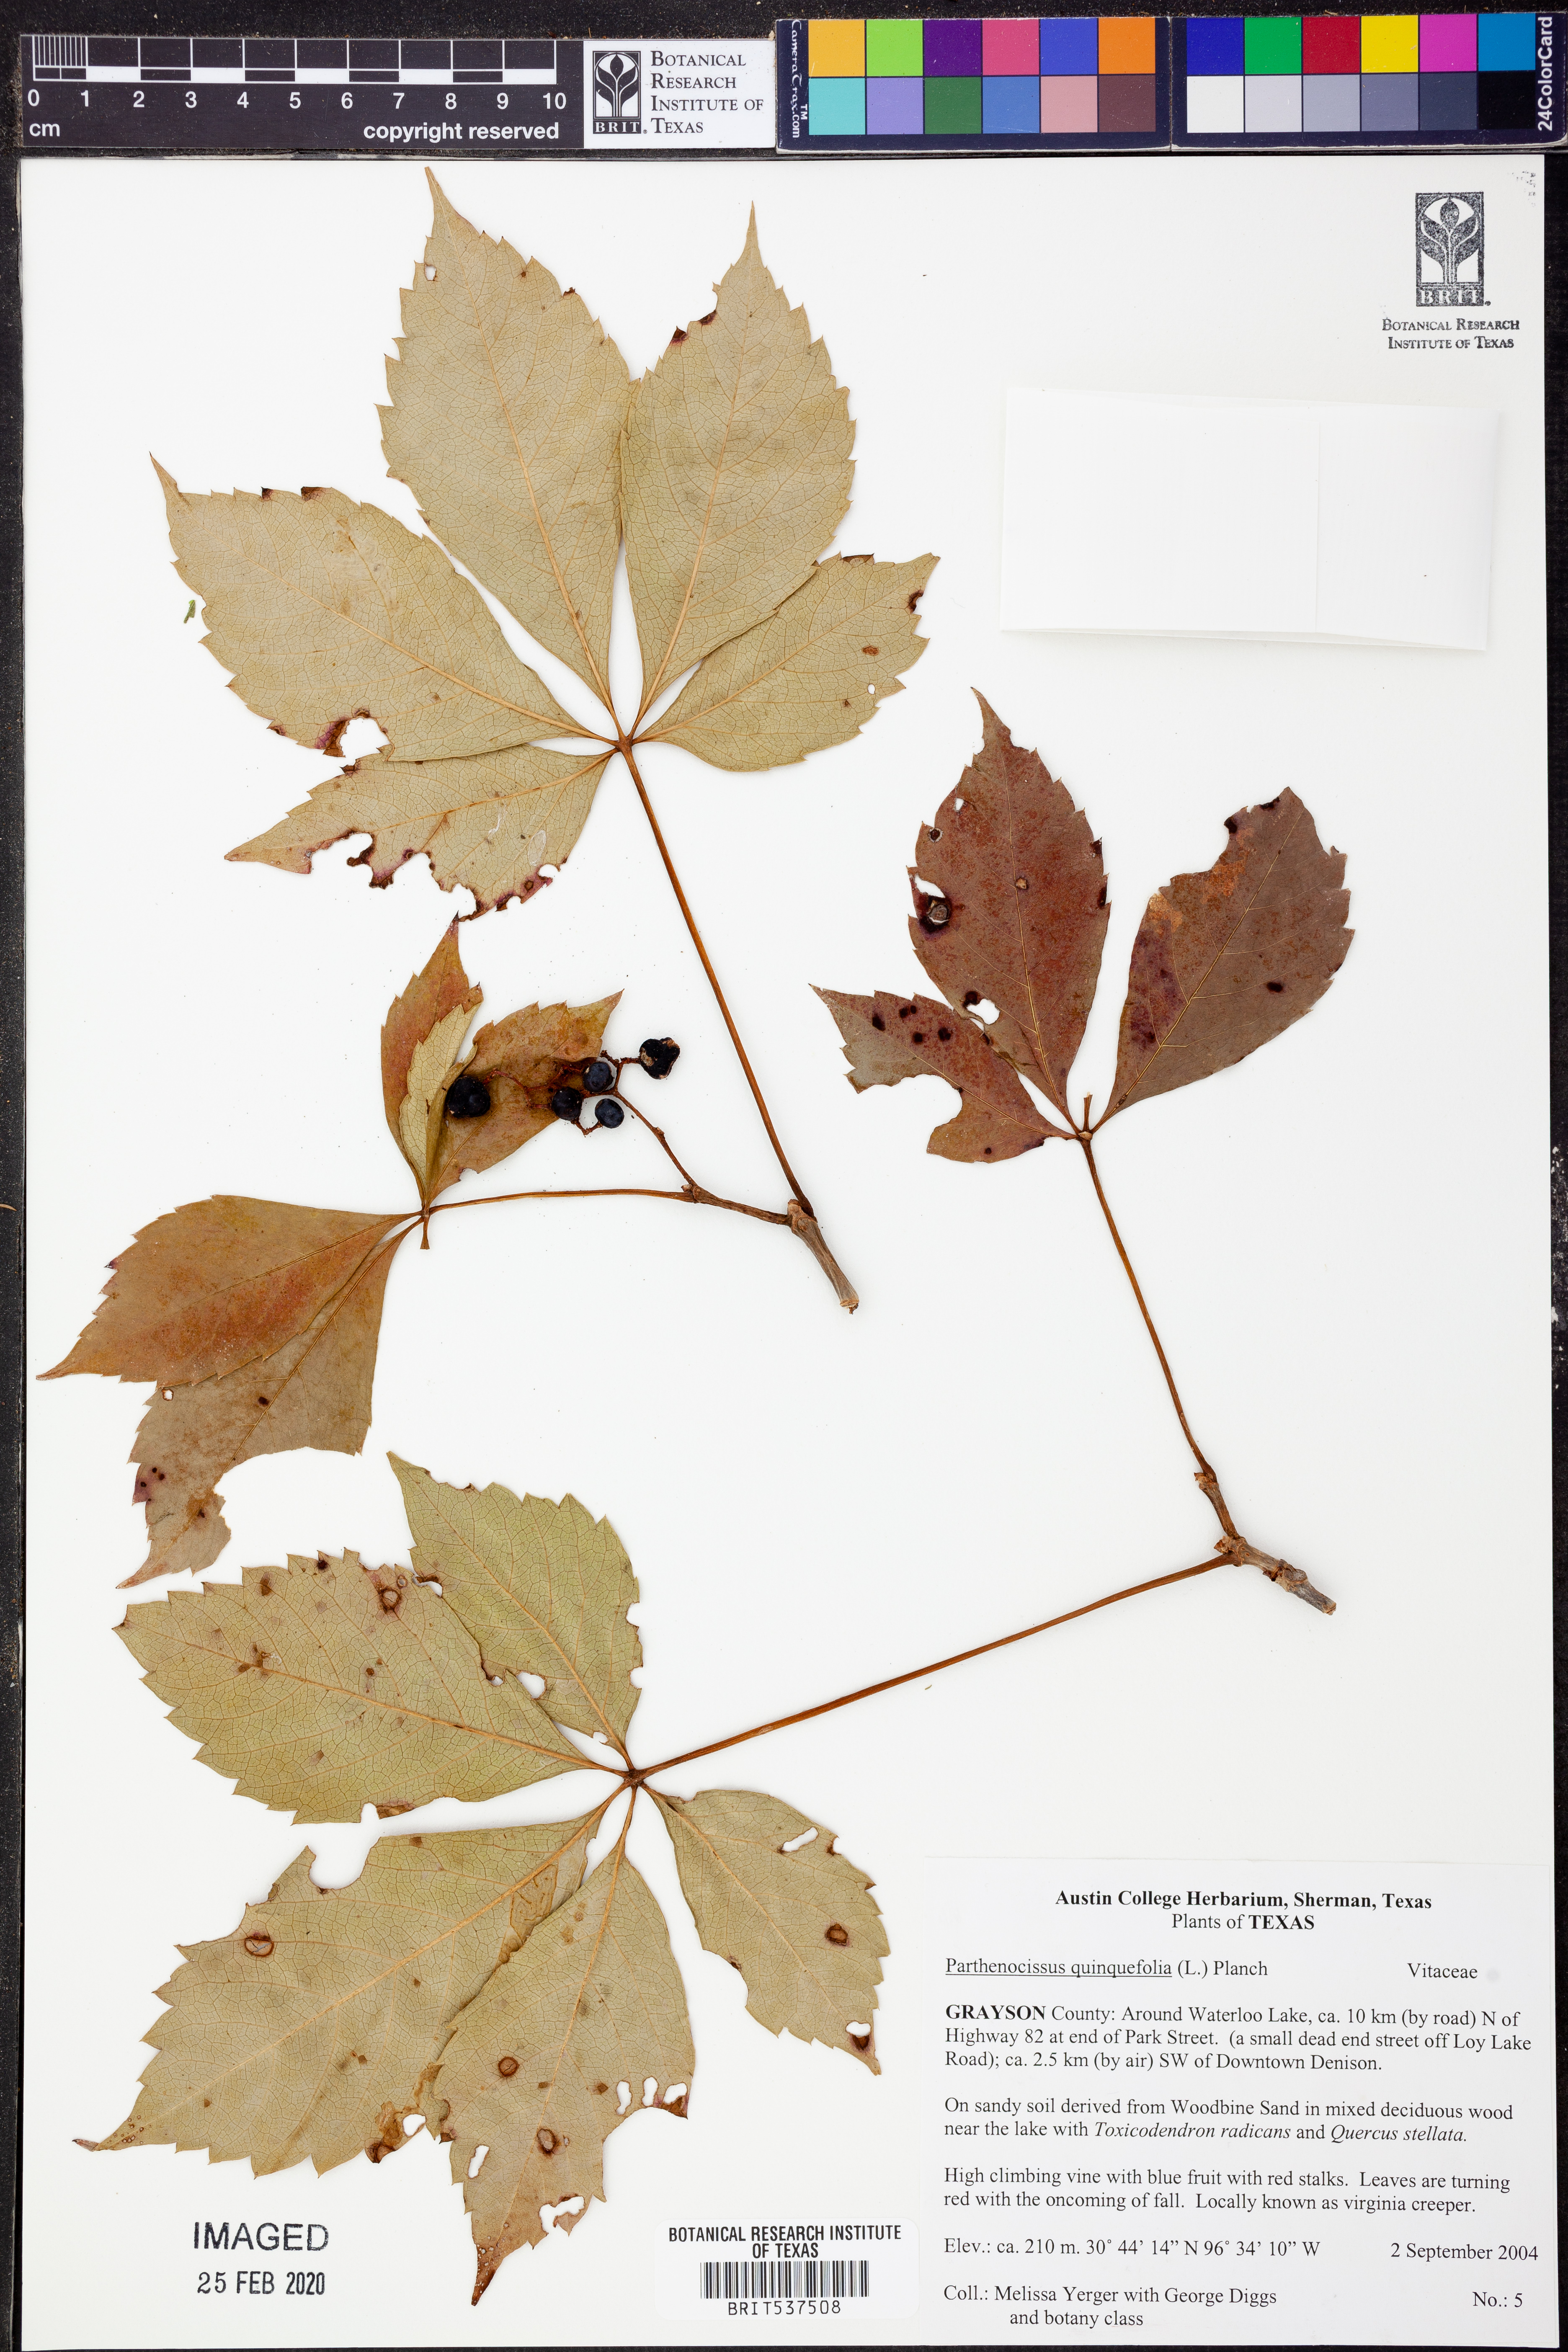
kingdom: Plantae
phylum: Tracheophyta
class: Magnoliopsida
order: Vitales
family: Vitaceae
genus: Parthenocissus
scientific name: Parthenocissus quinquefolia
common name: Virginia-creeper
